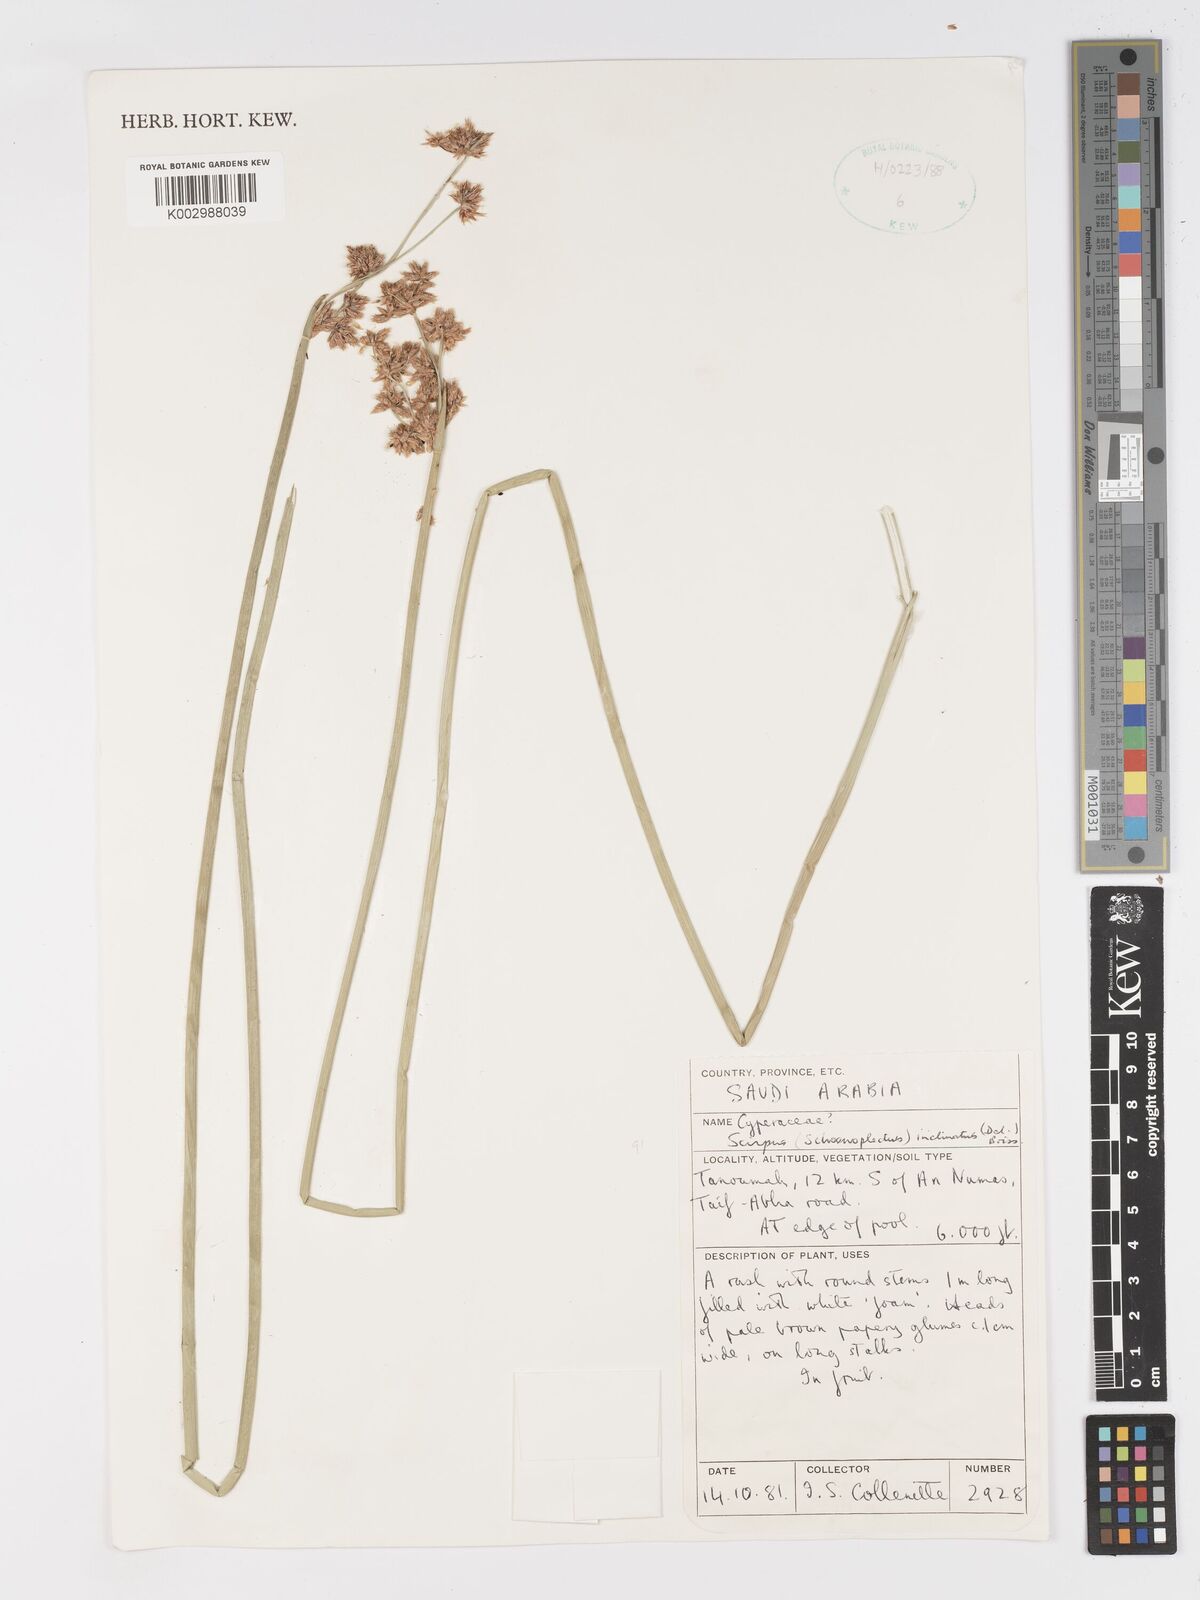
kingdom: Plantae
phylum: Tracheophyta
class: Liliopsida
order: Poales
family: Cyperaceae
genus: Schoenoplectiella
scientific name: Schoenoplectiella corymbosa
